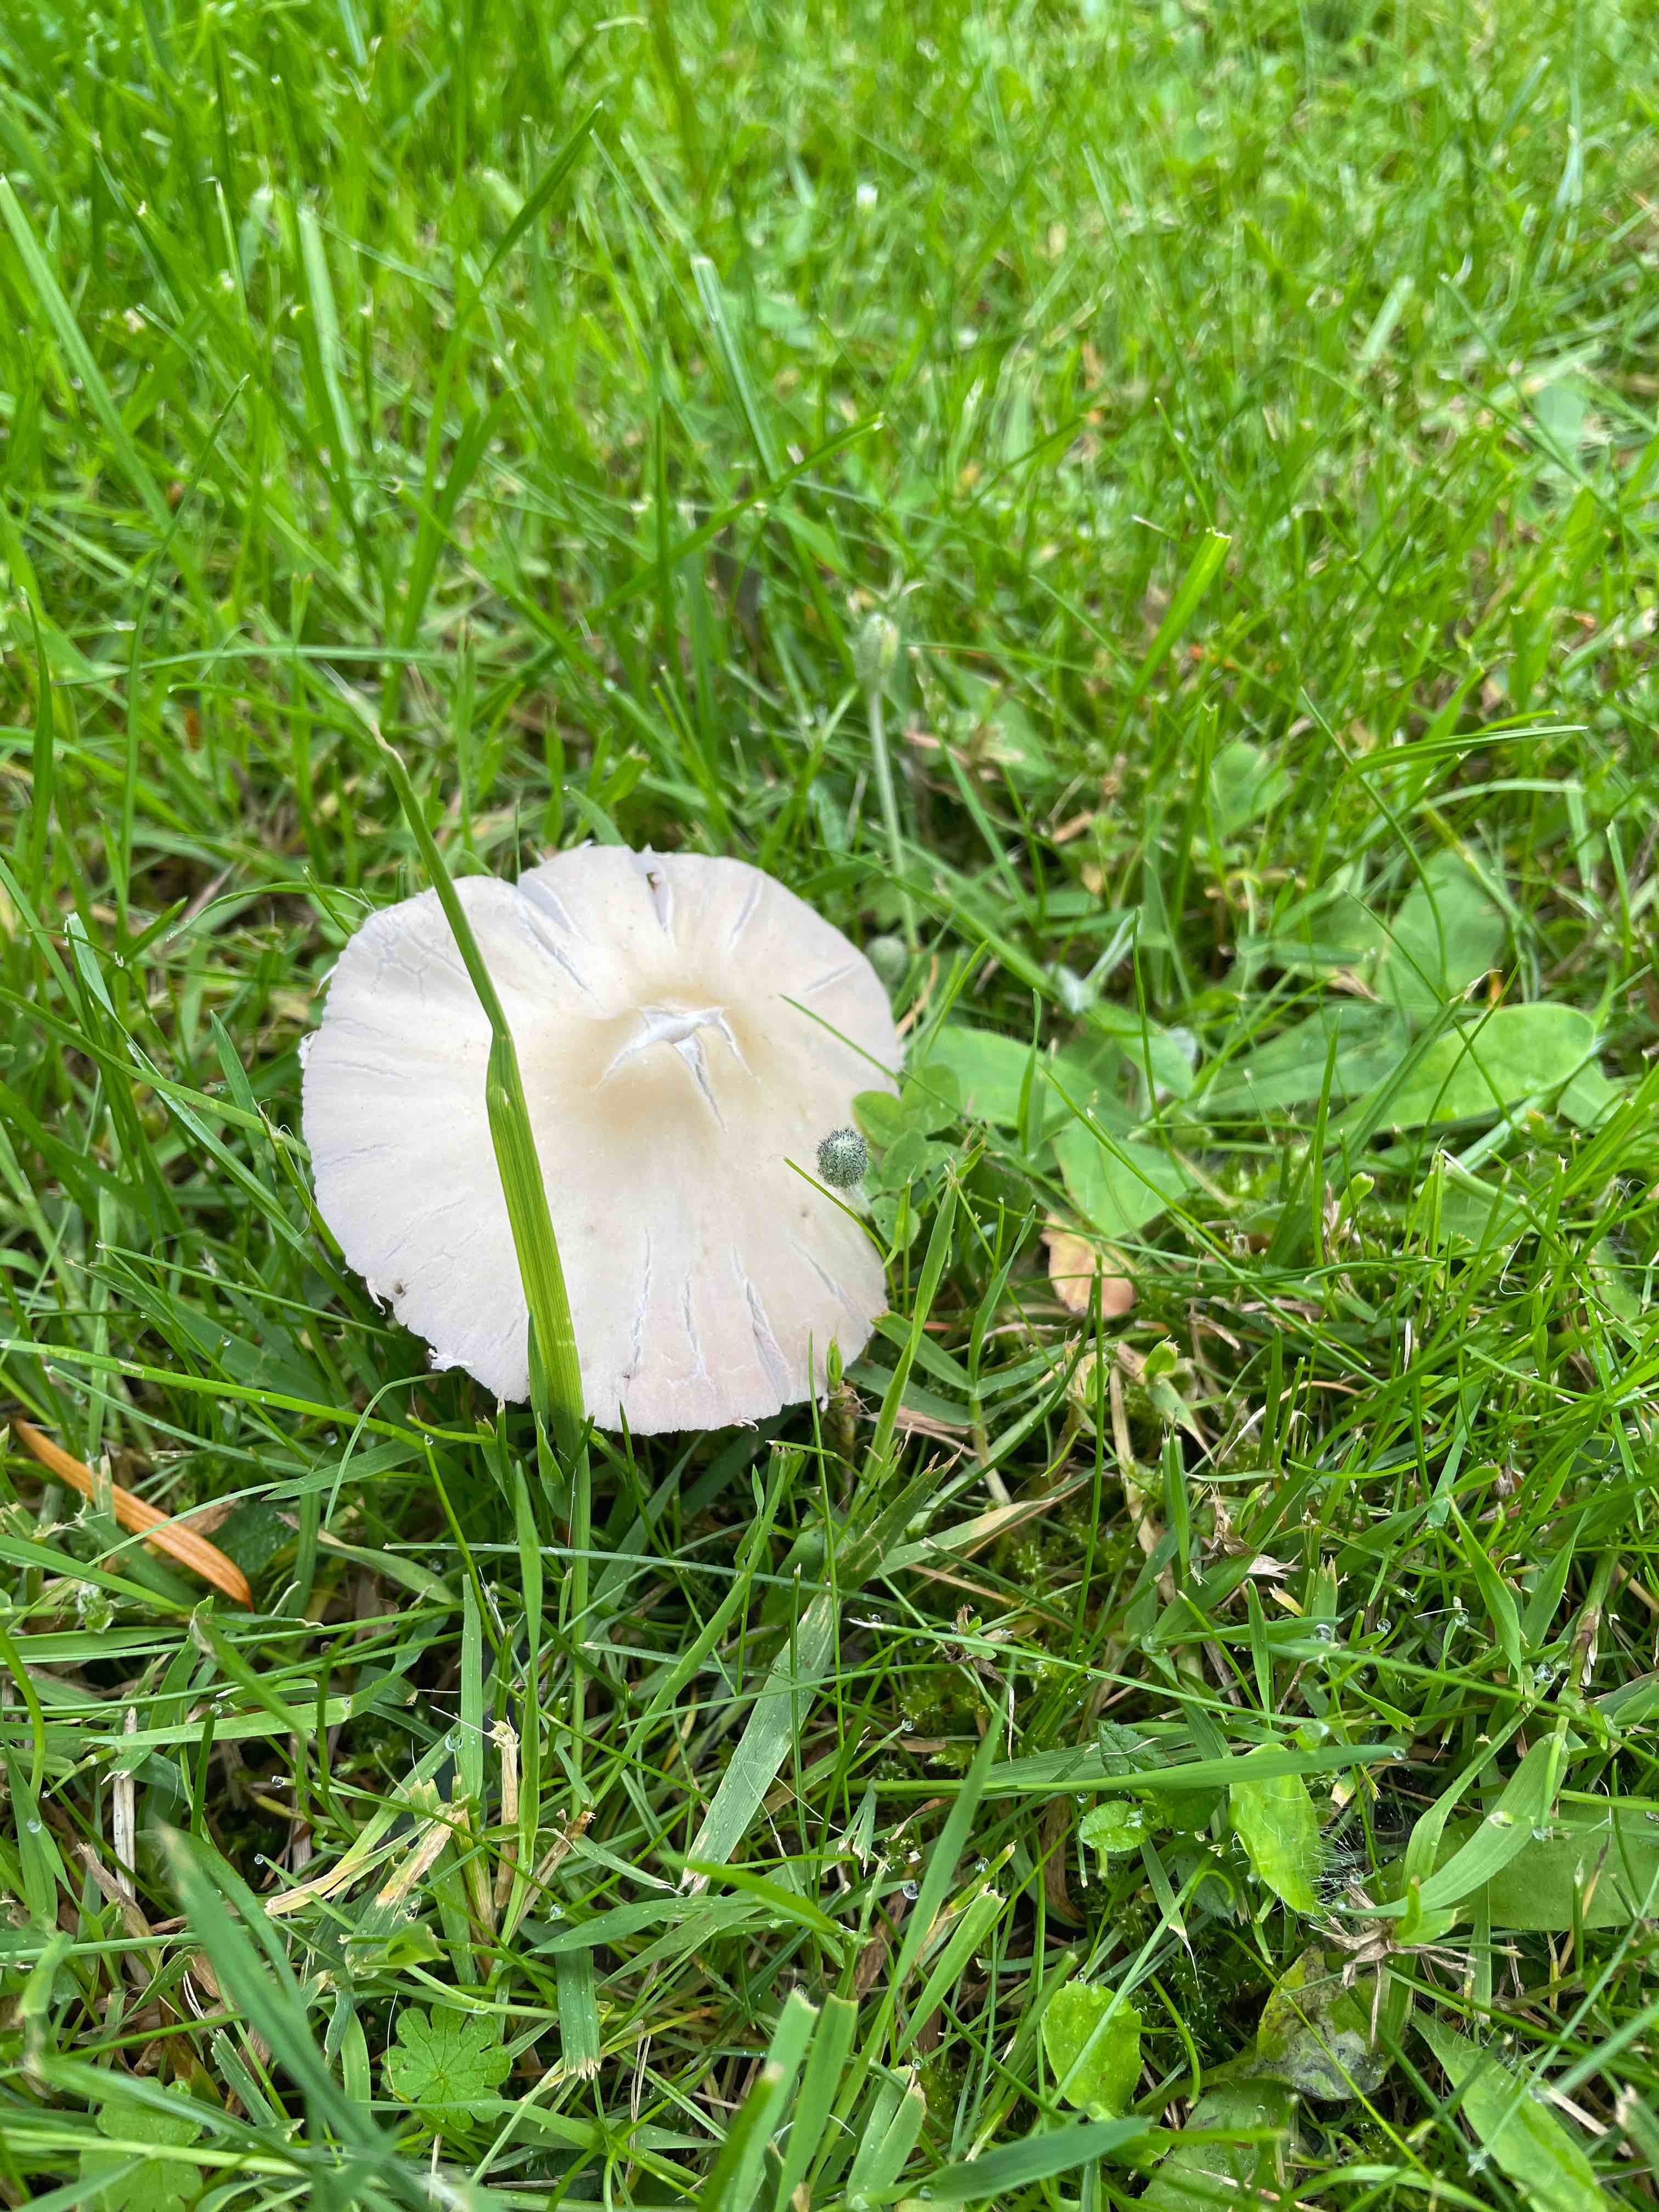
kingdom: Fungi
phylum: Basidiomycota
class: Agaricomycetes
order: Agaricales
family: Psathyrellaceae
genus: Candolleomyces
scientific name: Candolleomyces candolleanus
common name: Candolles mørkhat
